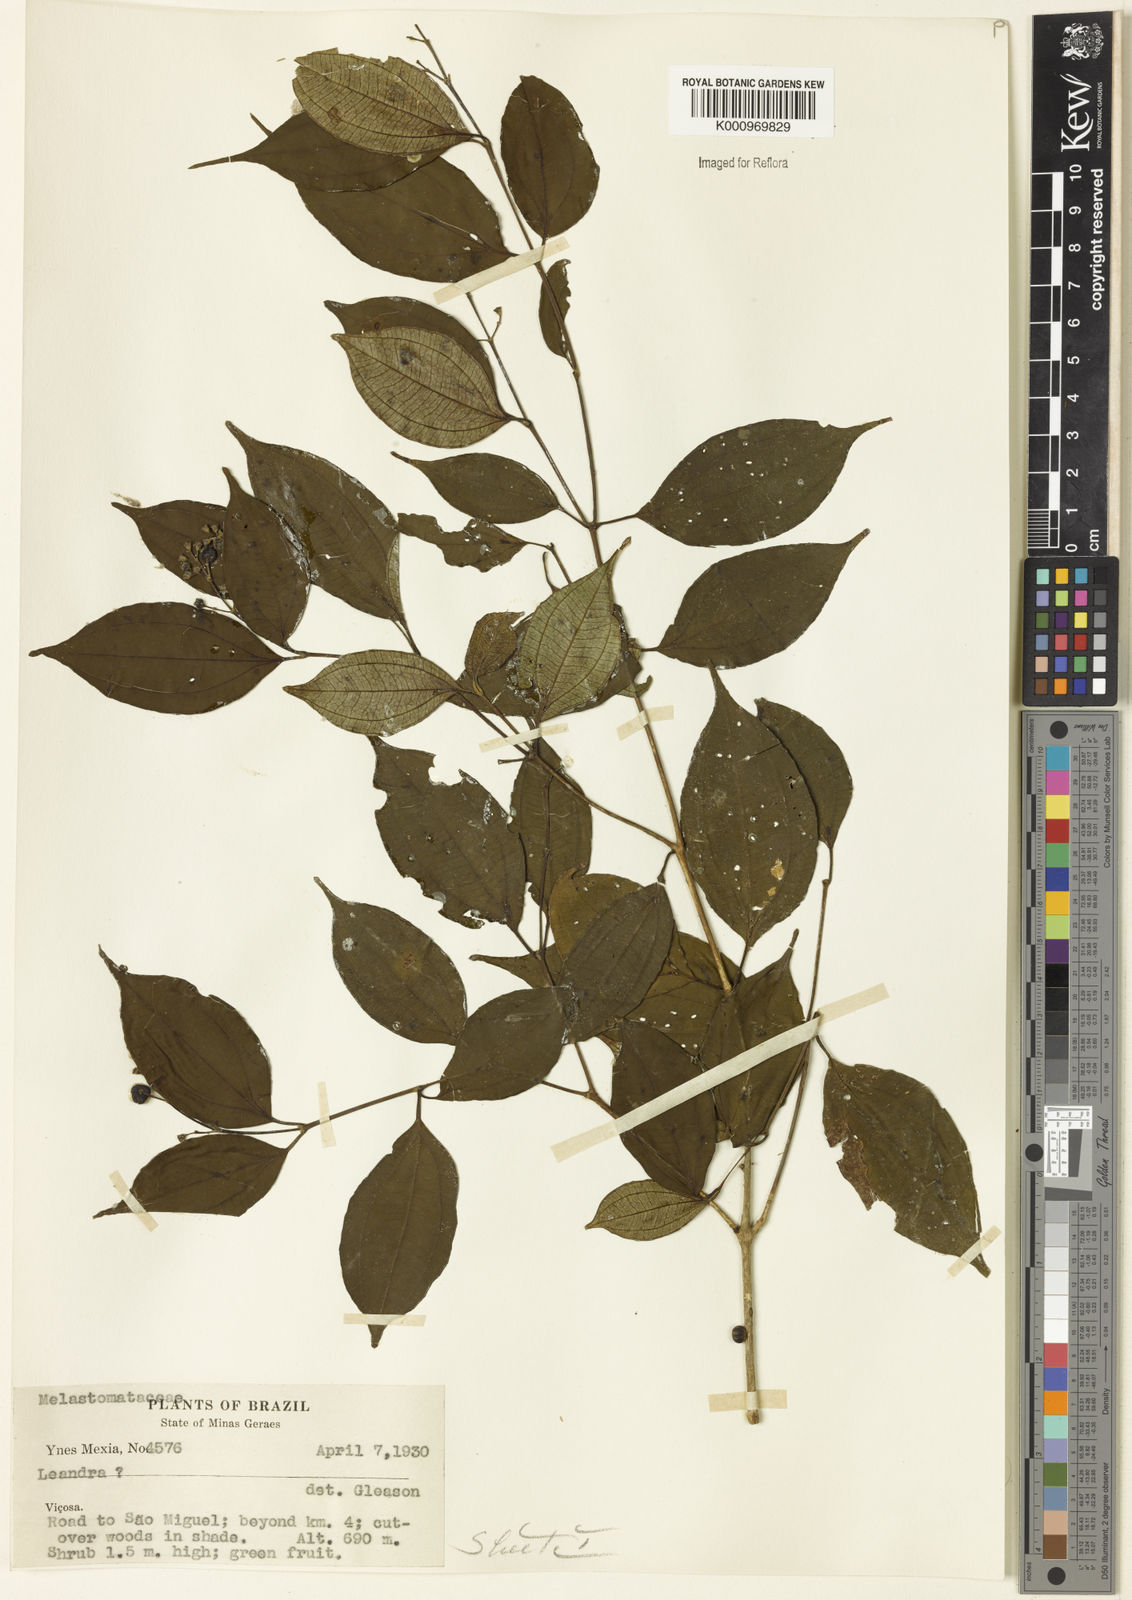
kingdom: Plantae
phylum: Tracheophyta
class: Magnoliopsida
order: Myrtales
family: Melastomataceae
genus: Miconia
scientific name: Miconia
